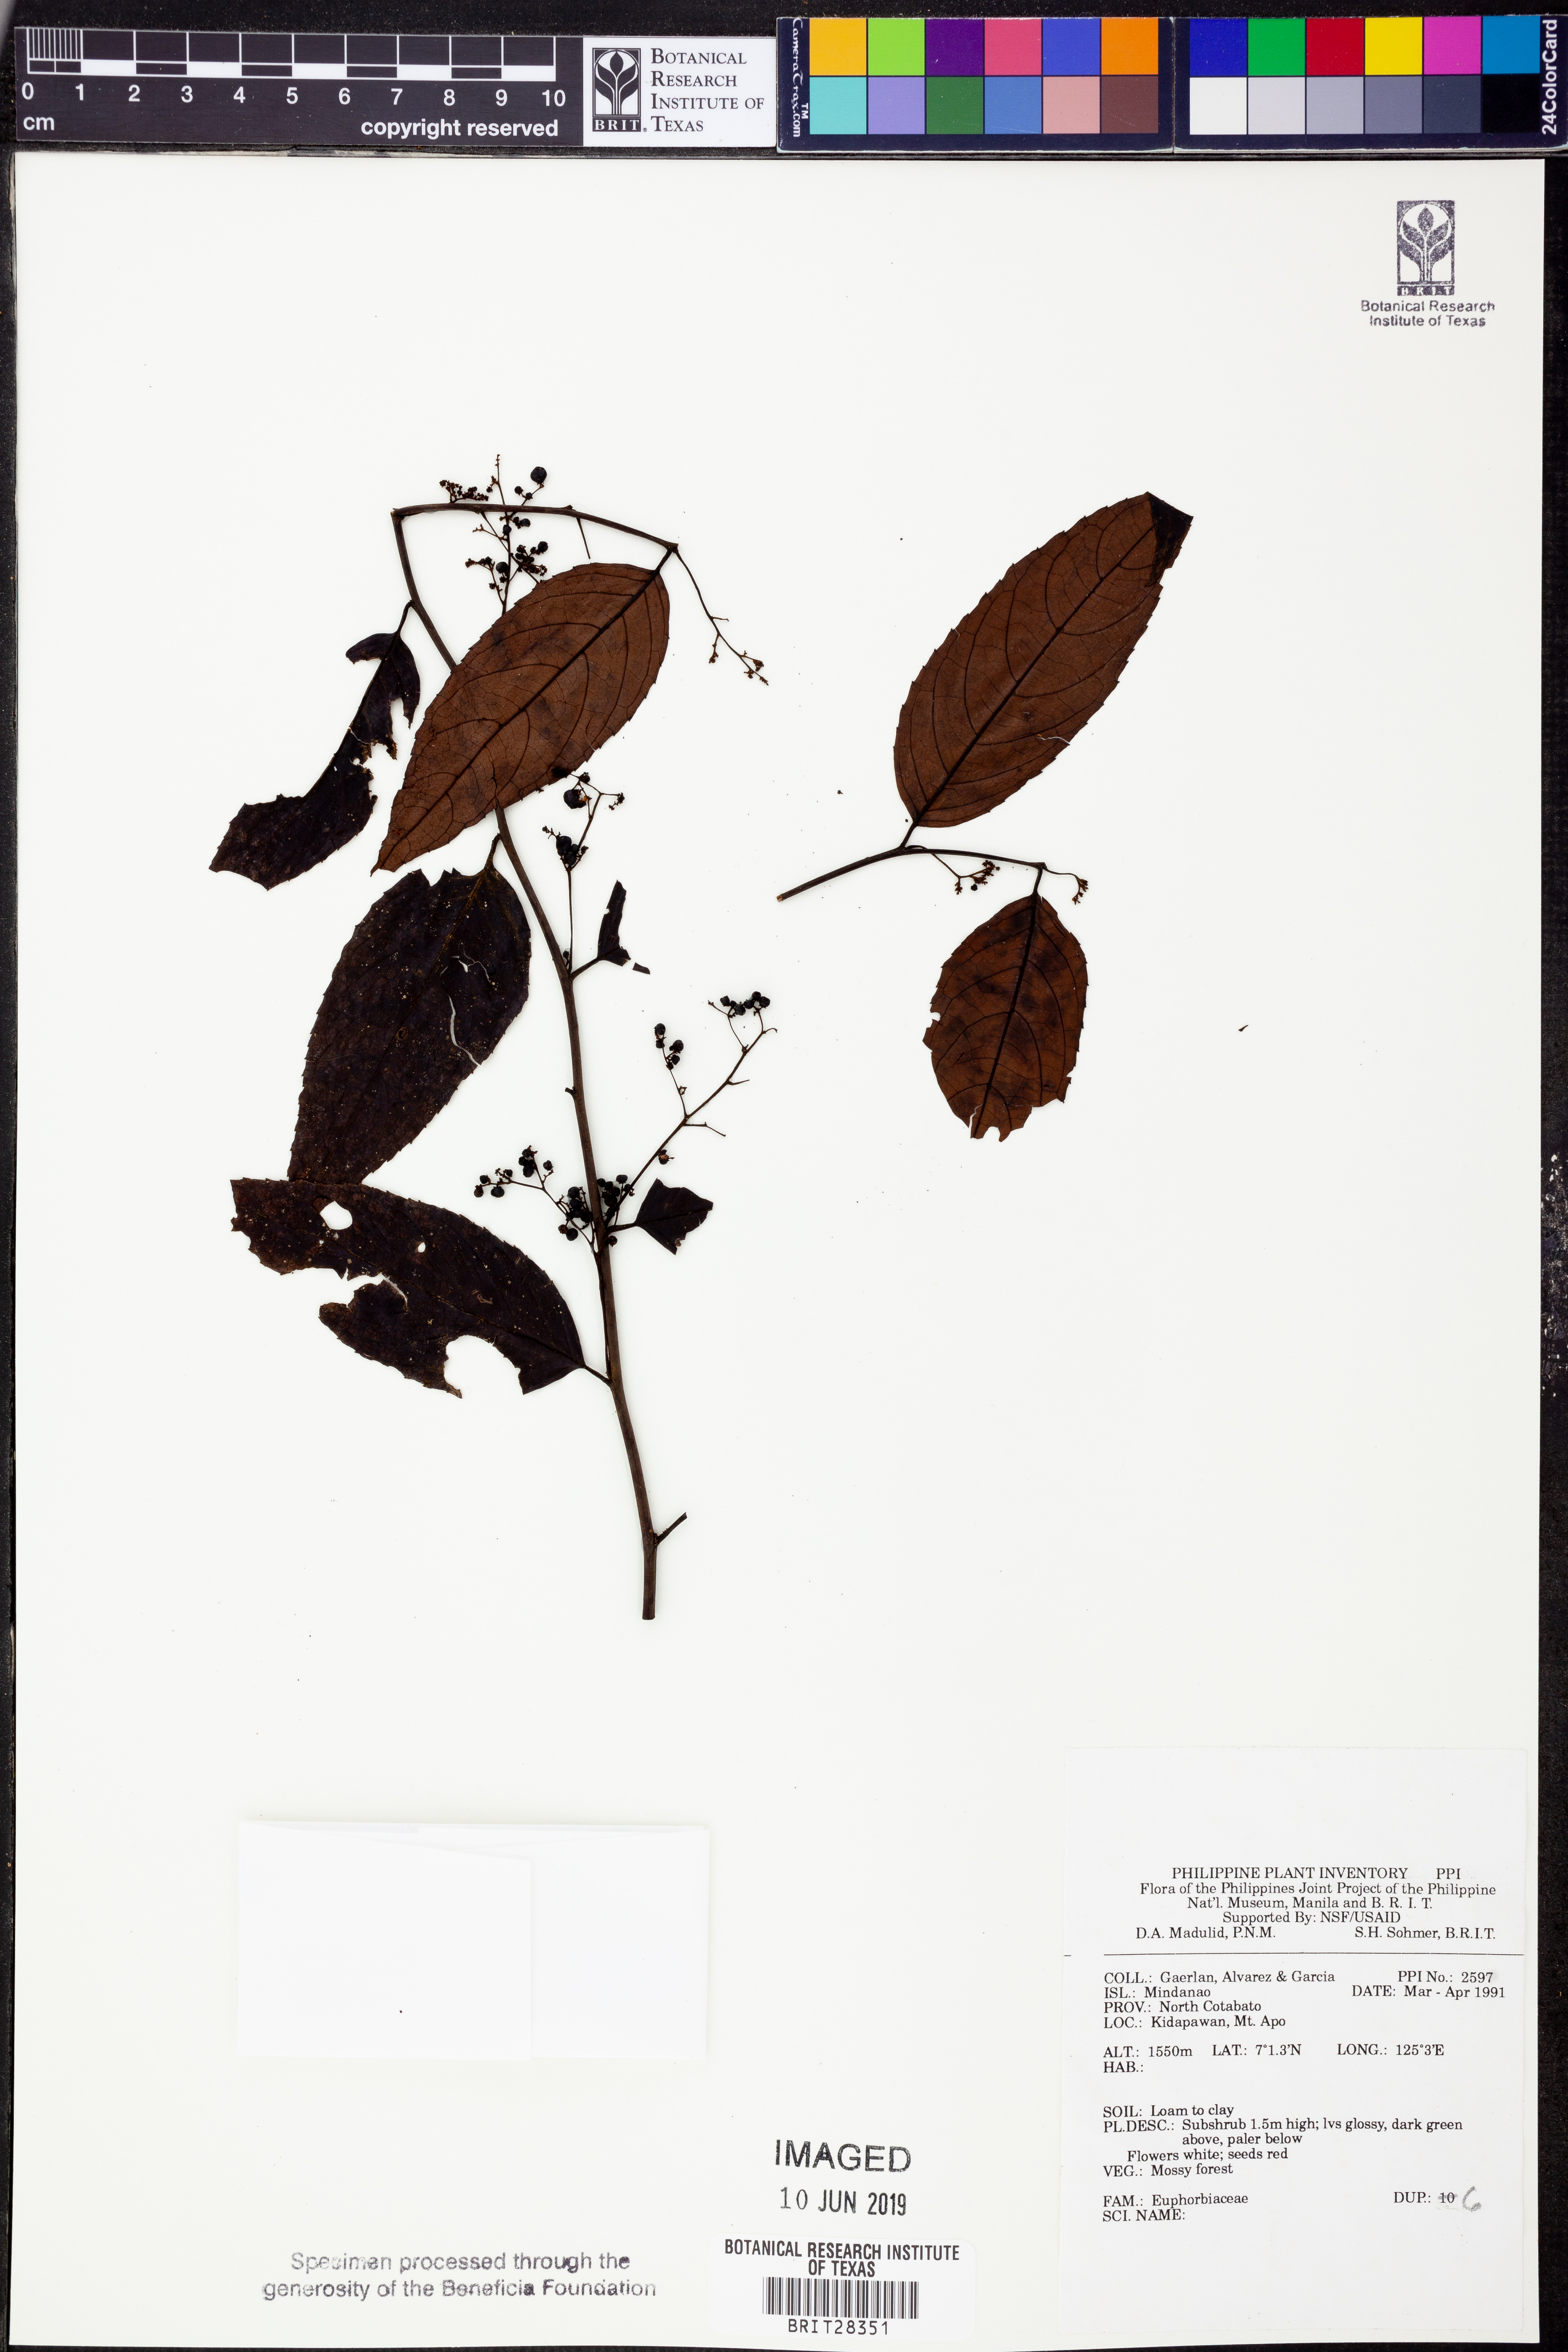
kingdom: Plantae
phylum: Tracheophyta
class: Magnoliopsida
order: Malpighiales
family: Euphorbiaceae
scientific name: Euphorbiaceae
